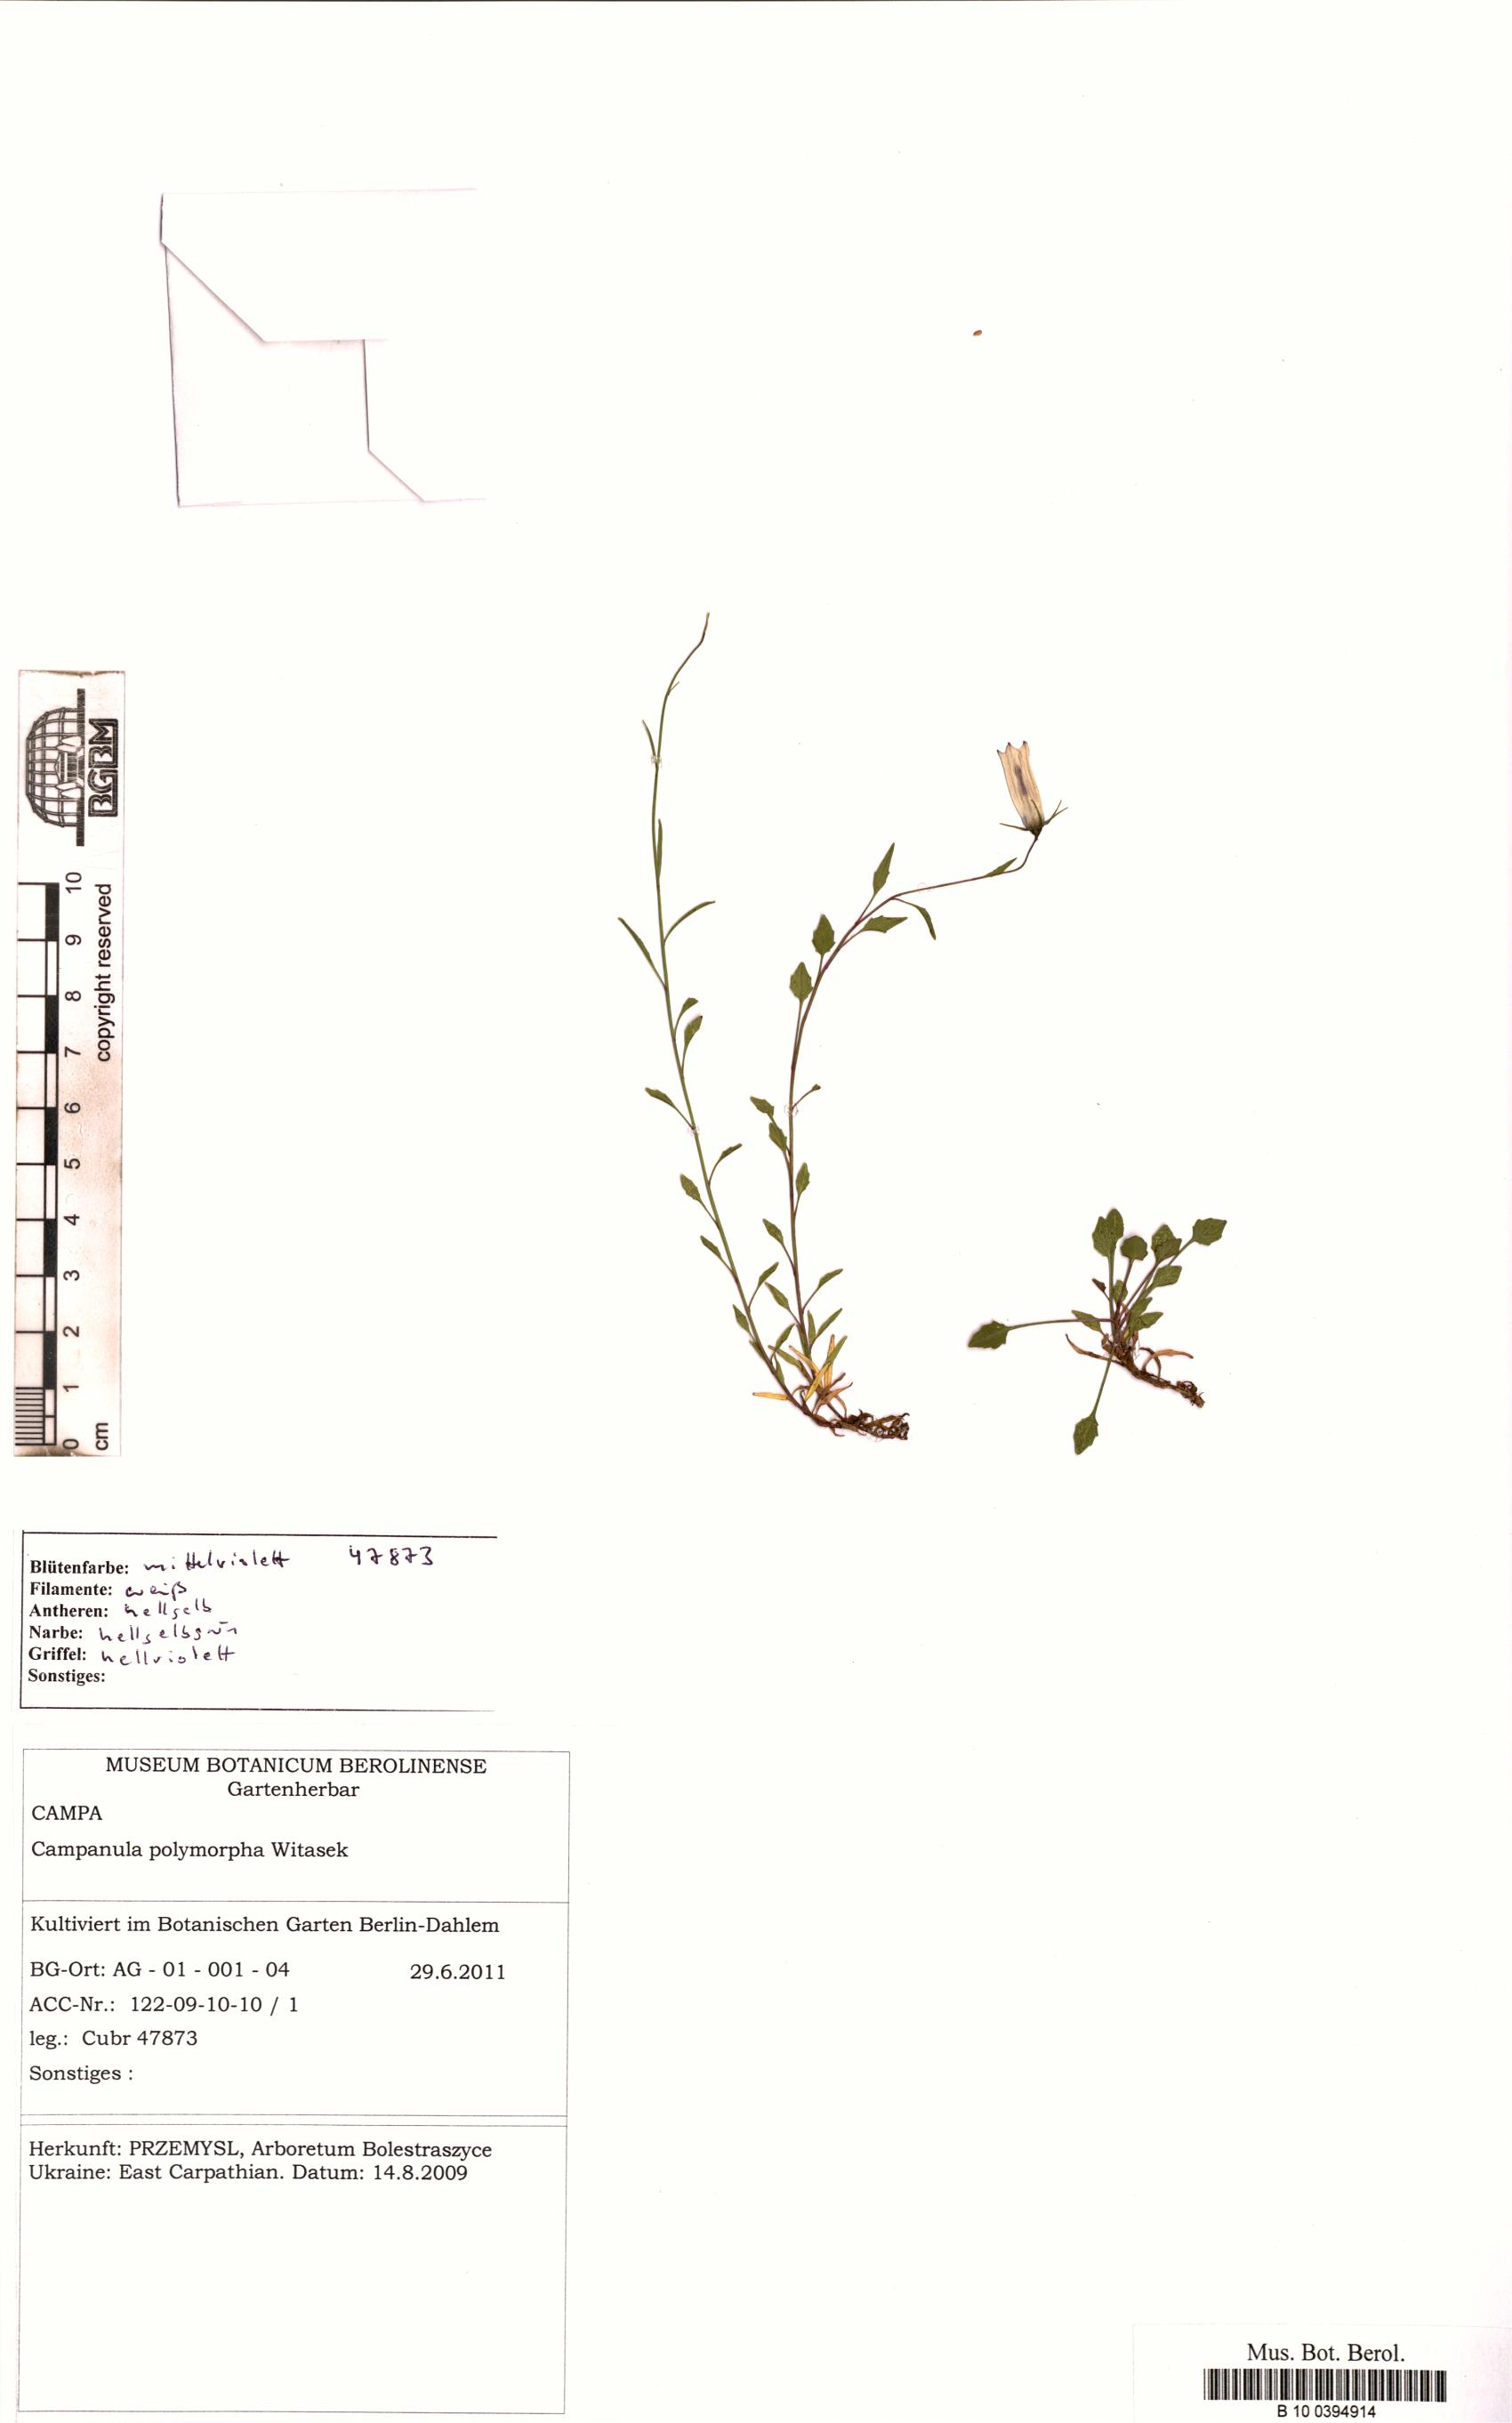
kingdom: Plantae
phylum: Tracheophyta
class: Magnoliopsida
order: Asterales
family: Campanulaceae
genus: Campanula
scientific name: Campanula tatrae
